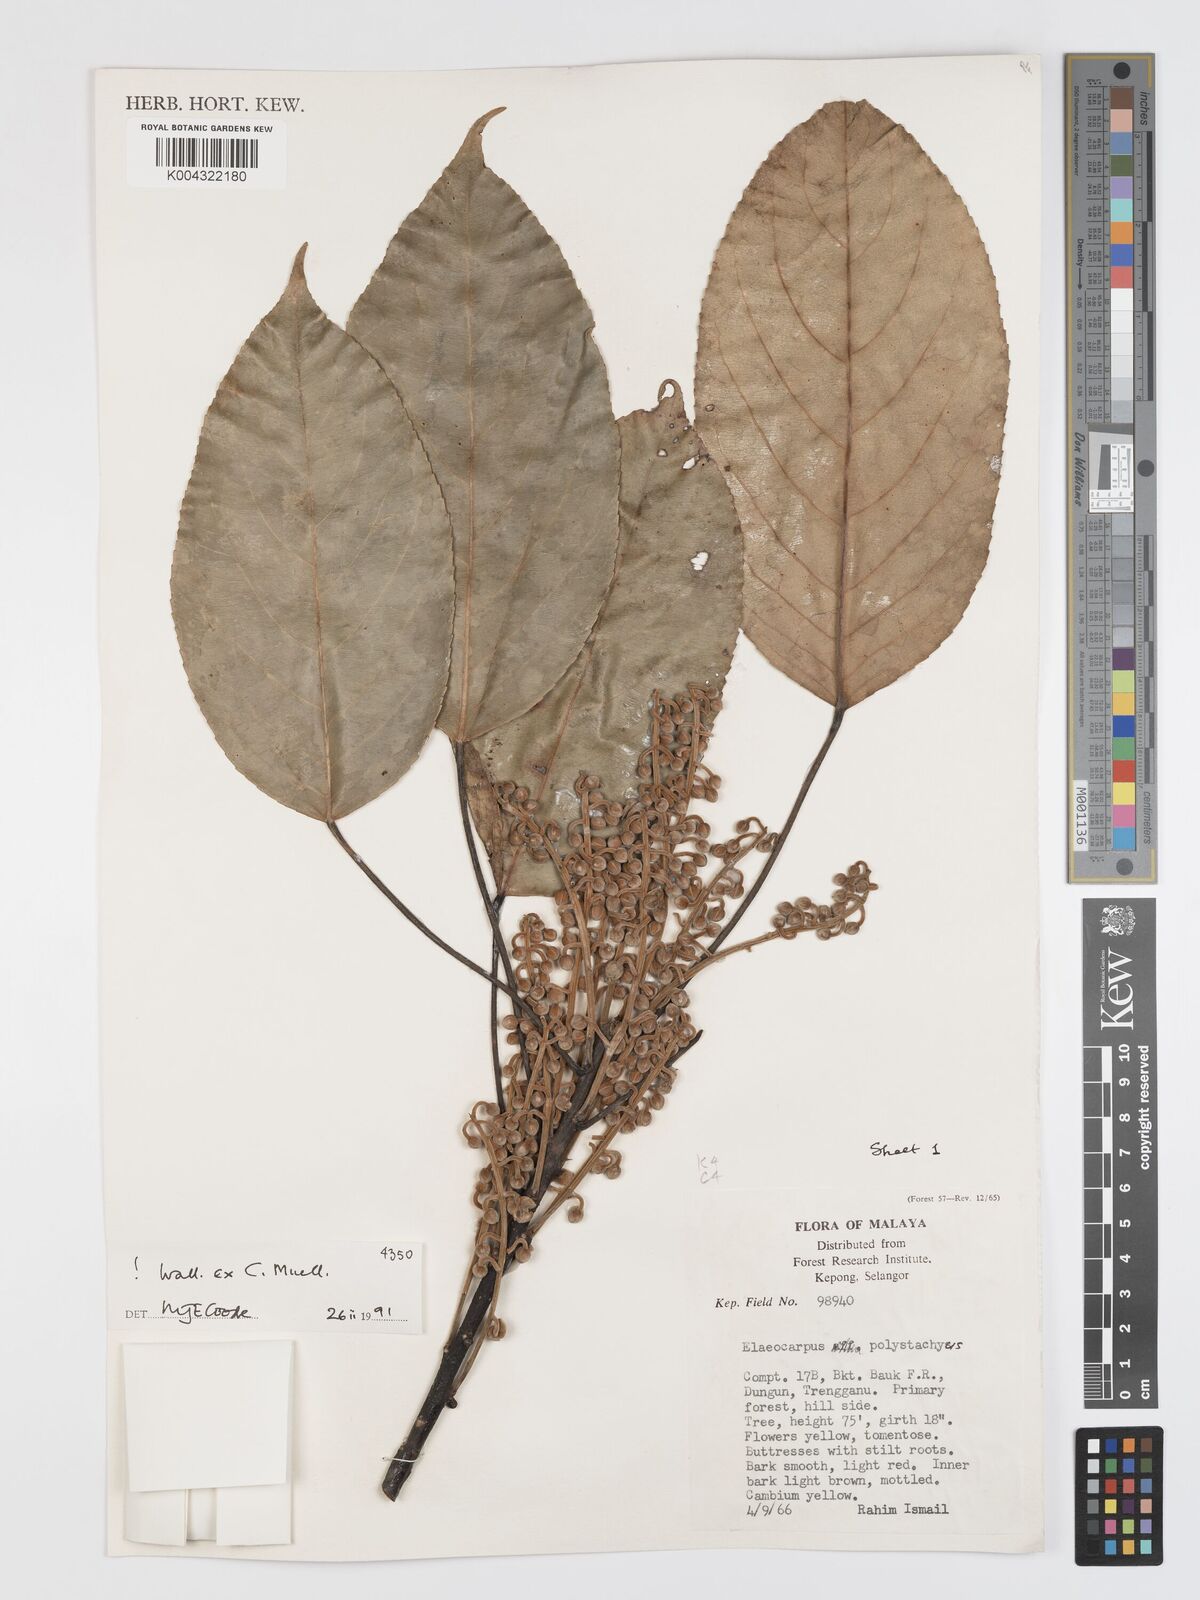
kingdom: Plantae
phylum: Tracheophyta
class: Magnoliopsida
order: Oxalidales
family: Elaeocarpaceae
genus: Elaeocarpus
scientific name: Elaeocarpus polystachyus
